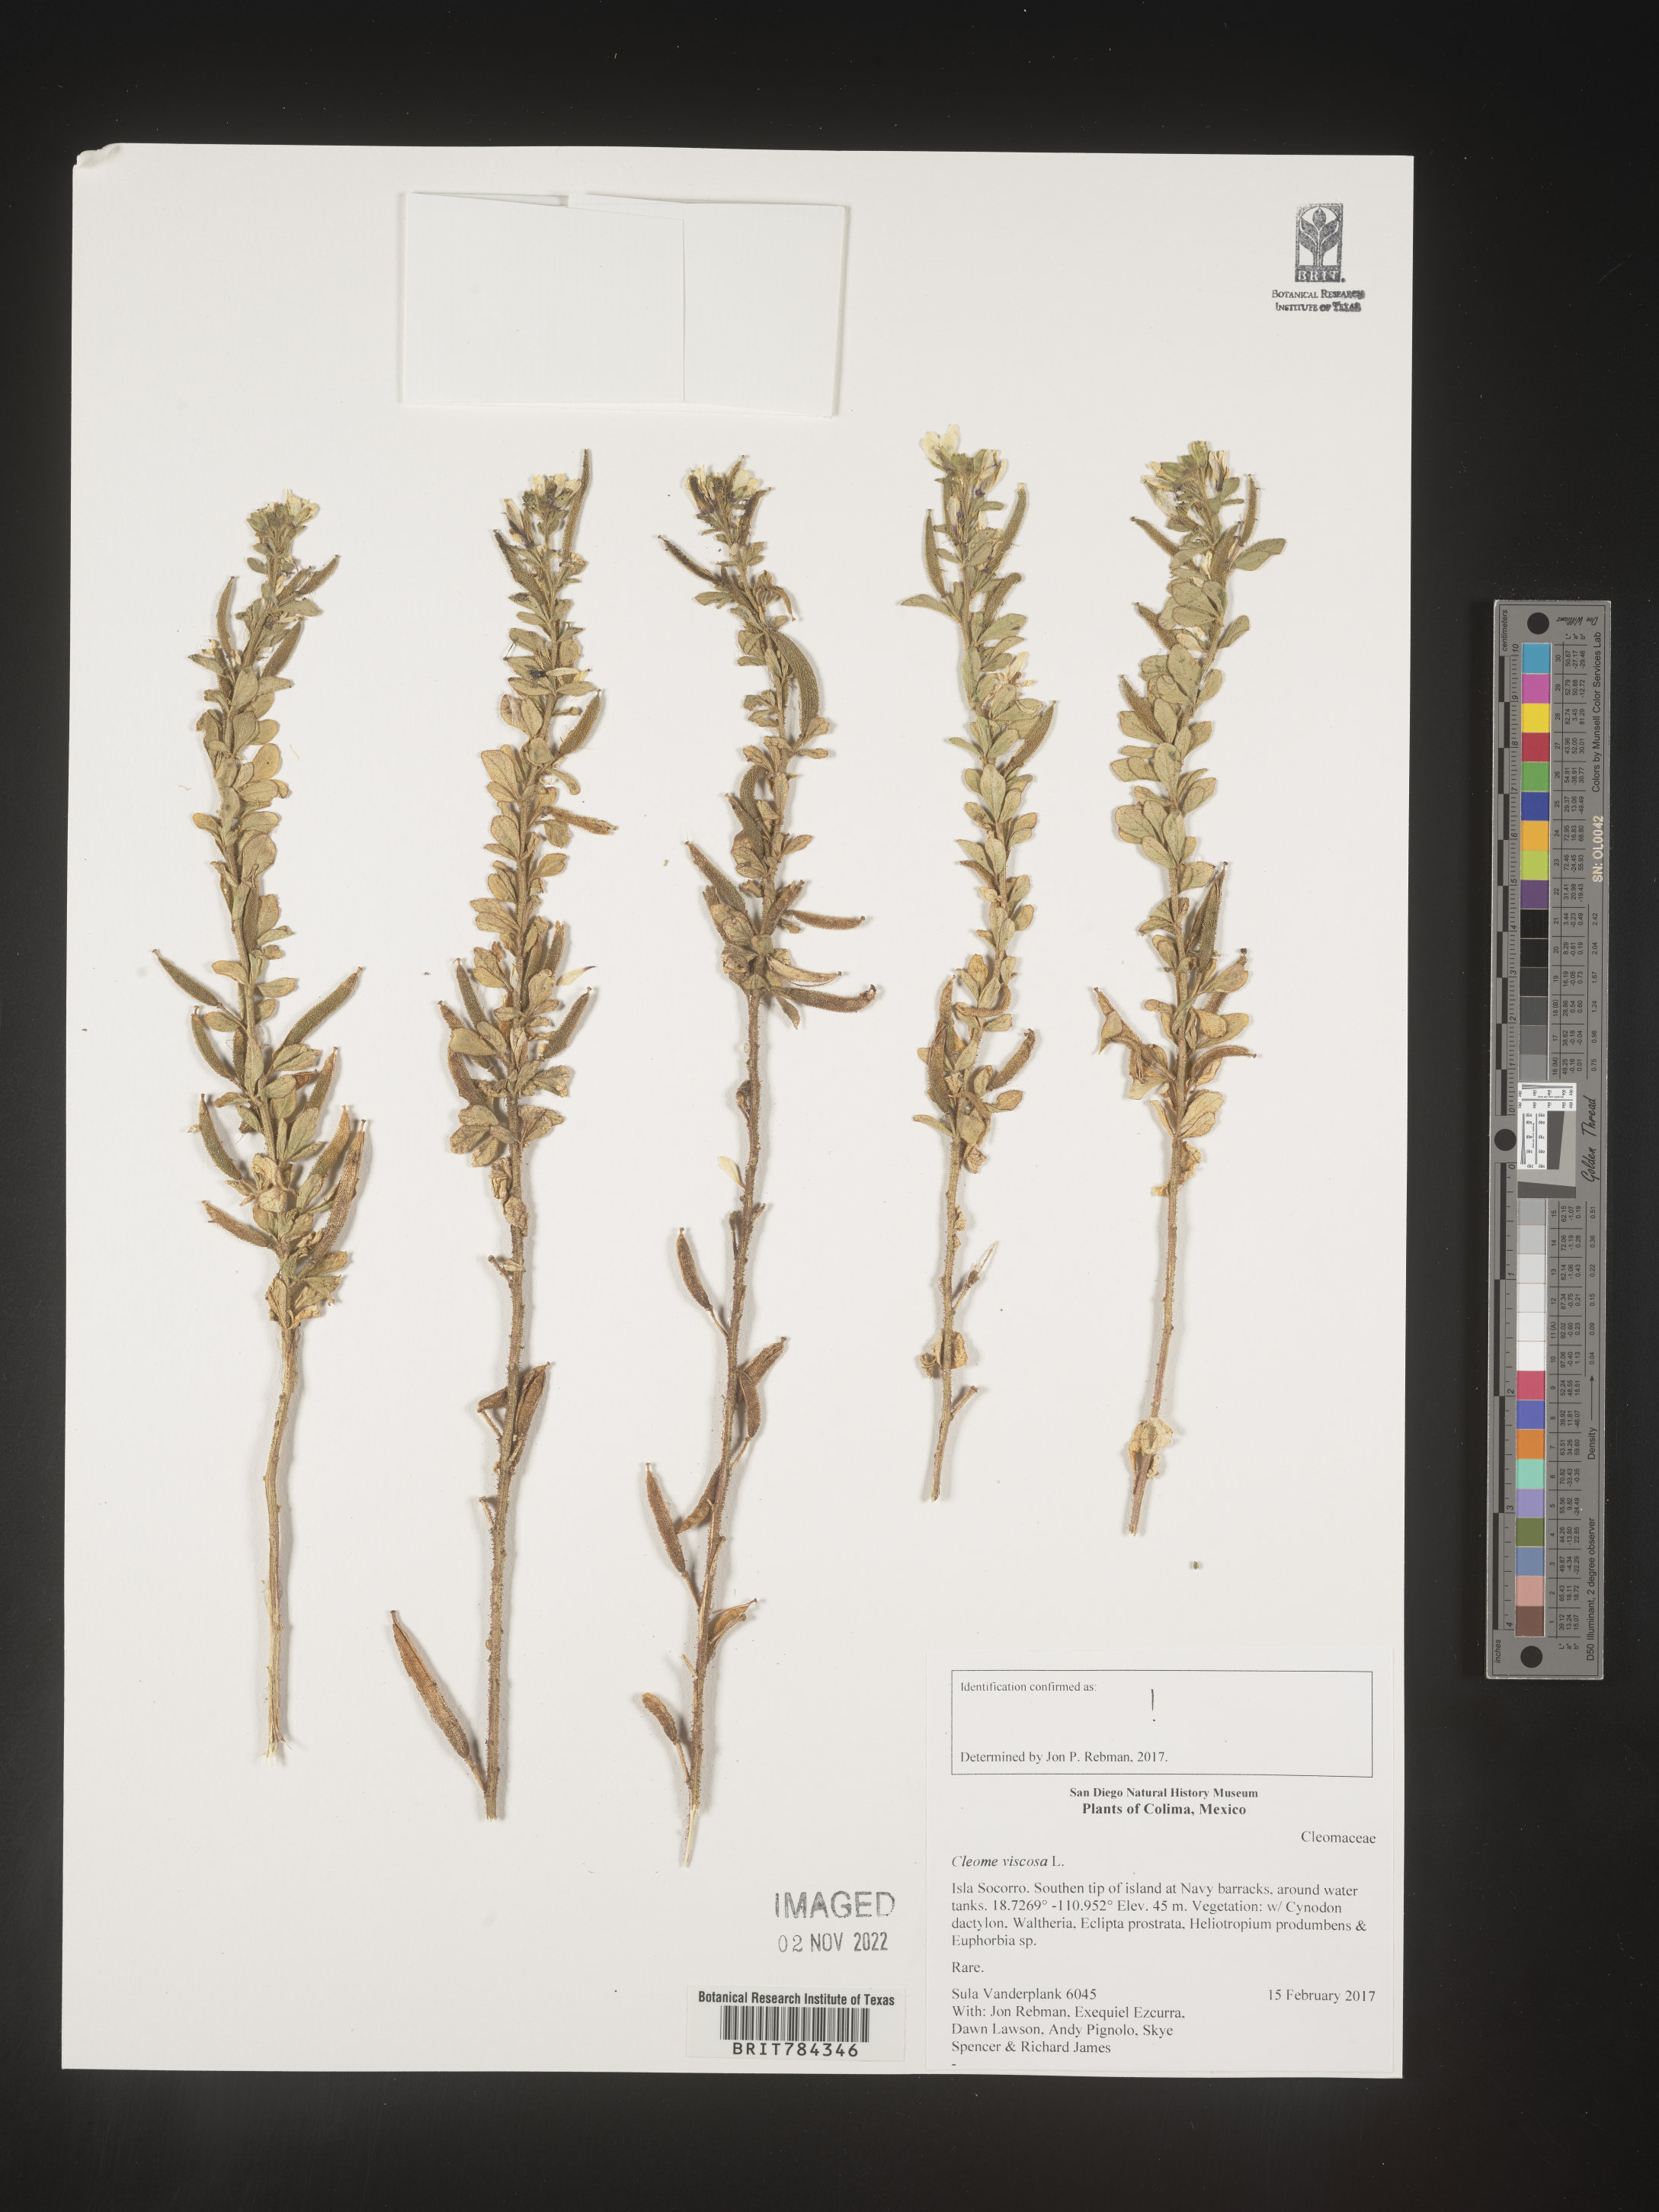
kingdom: Plantae
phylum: Tracheophyta
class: Magnoliopsida
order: Brassicales
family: Cleomaceae
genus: Cleome
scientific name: Cleome
